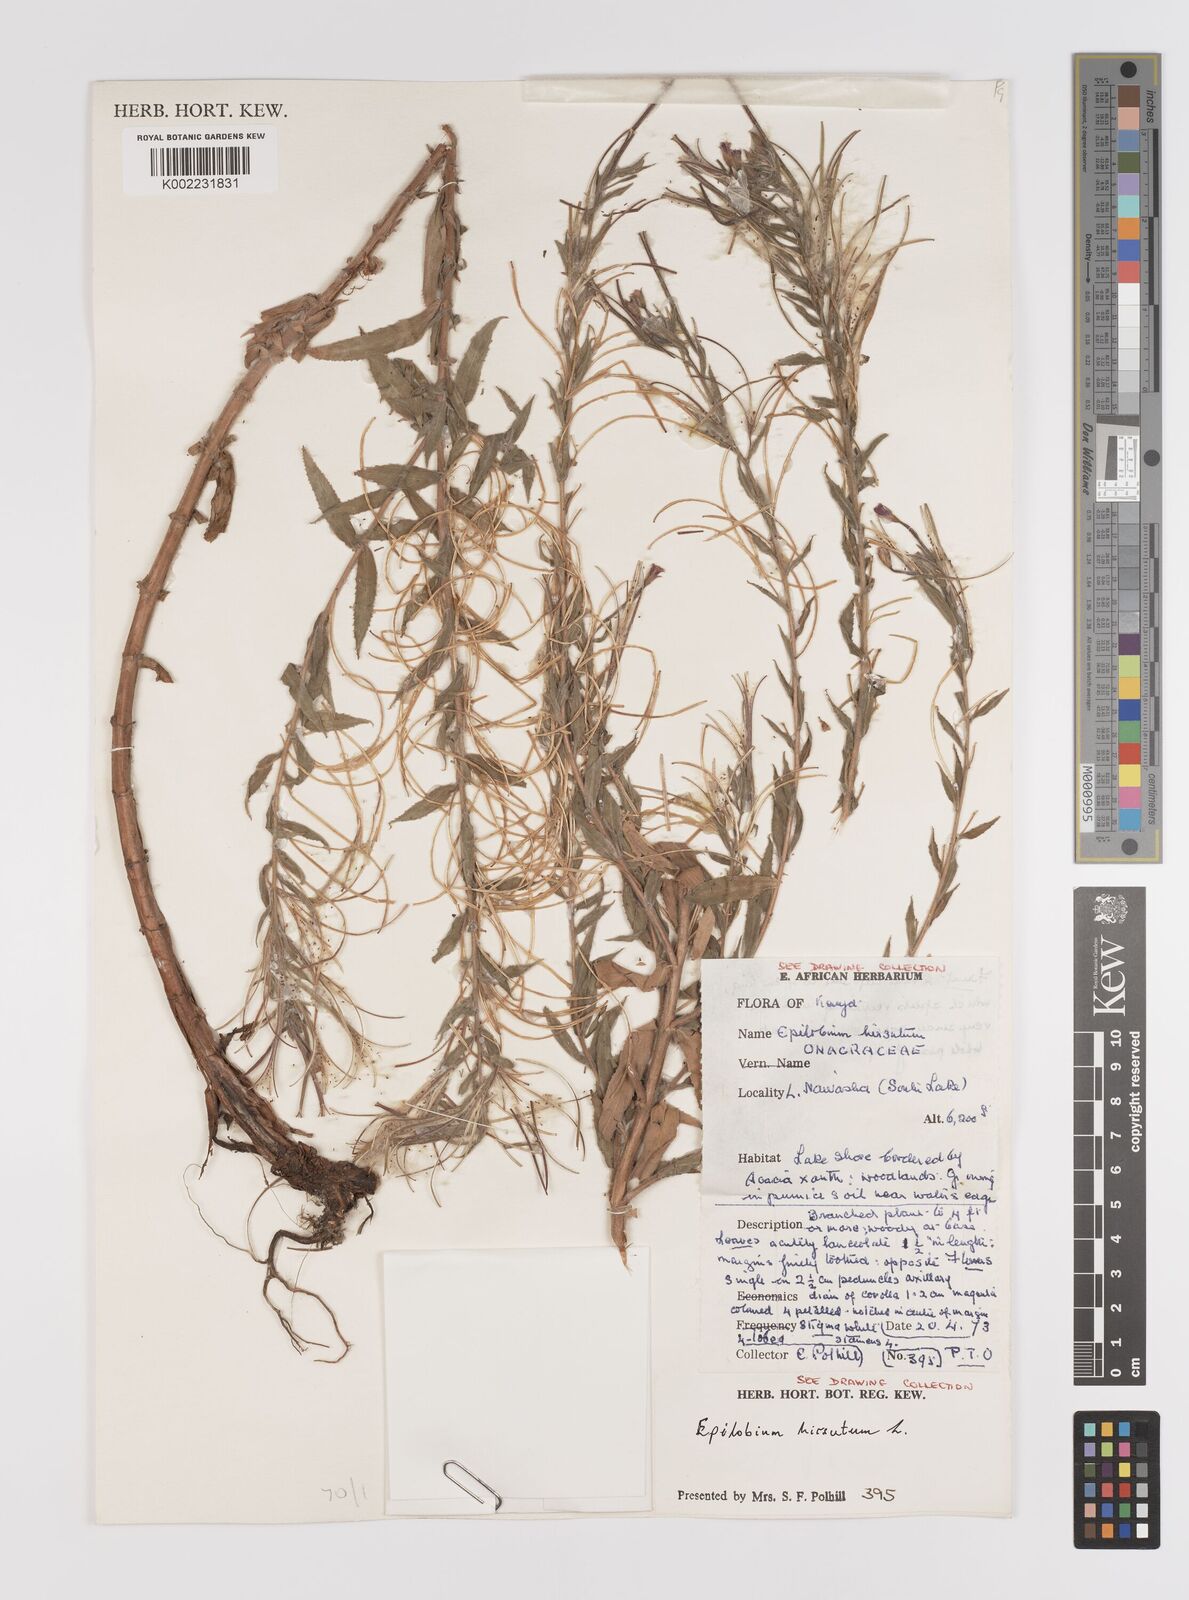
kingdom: Plantae
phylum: Tracheophyta
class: Magnoliopsida
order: Myrtales
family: Onagraceae
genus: Epilobium
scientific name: Epilobium hirsutum
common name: Great willowherb
